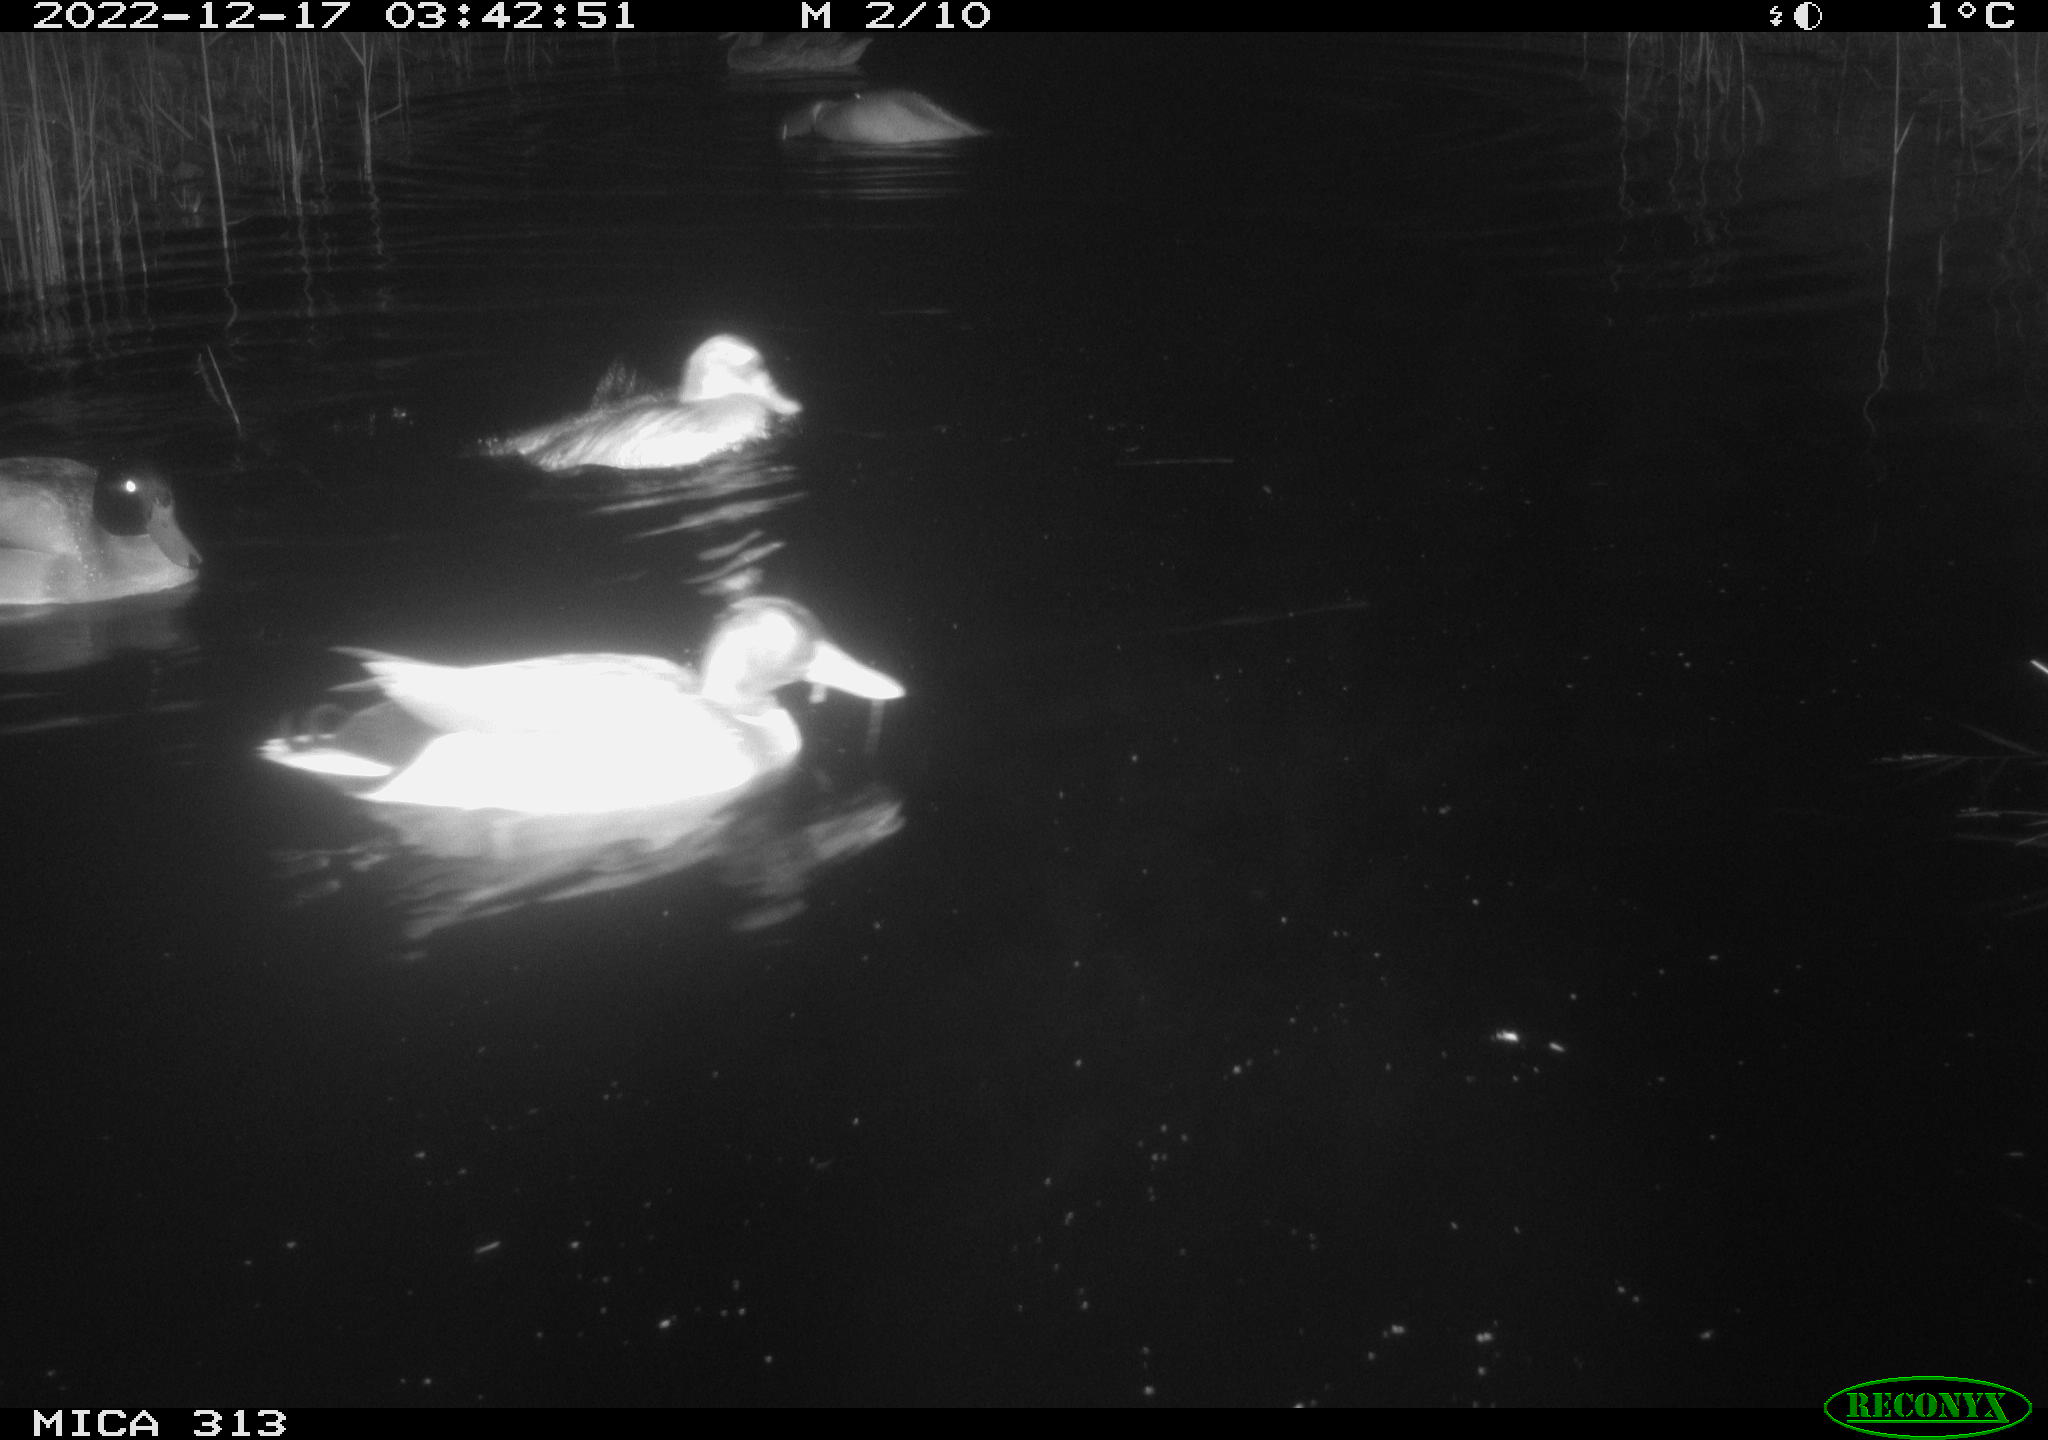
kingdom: Animalia
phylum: Chordata
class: Aves
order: Anseriformes
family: Anatidae
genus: Anas
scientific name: Anas
